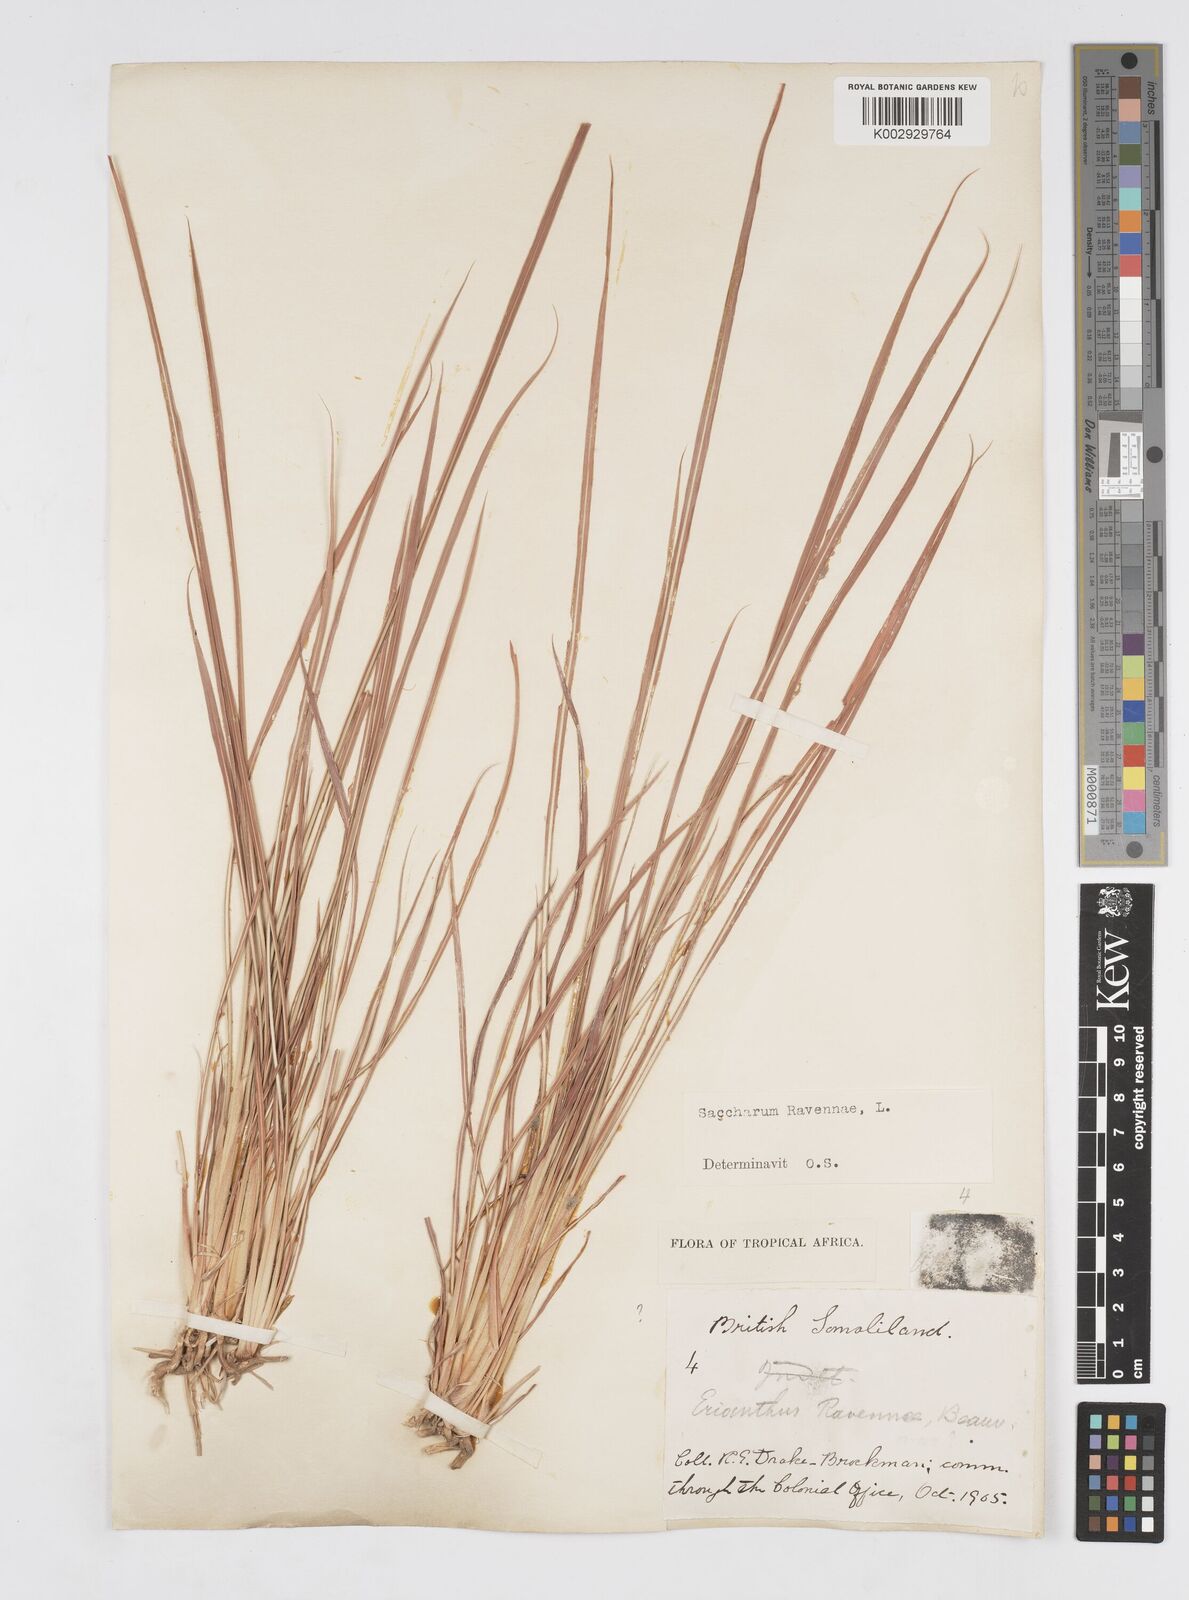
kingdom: Plantae
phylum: Tracheophyta
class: Liliopsida
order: Poales
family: Poaceae
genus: Tripidium
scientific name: Tripidium ravennae
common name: Ravenna grass
